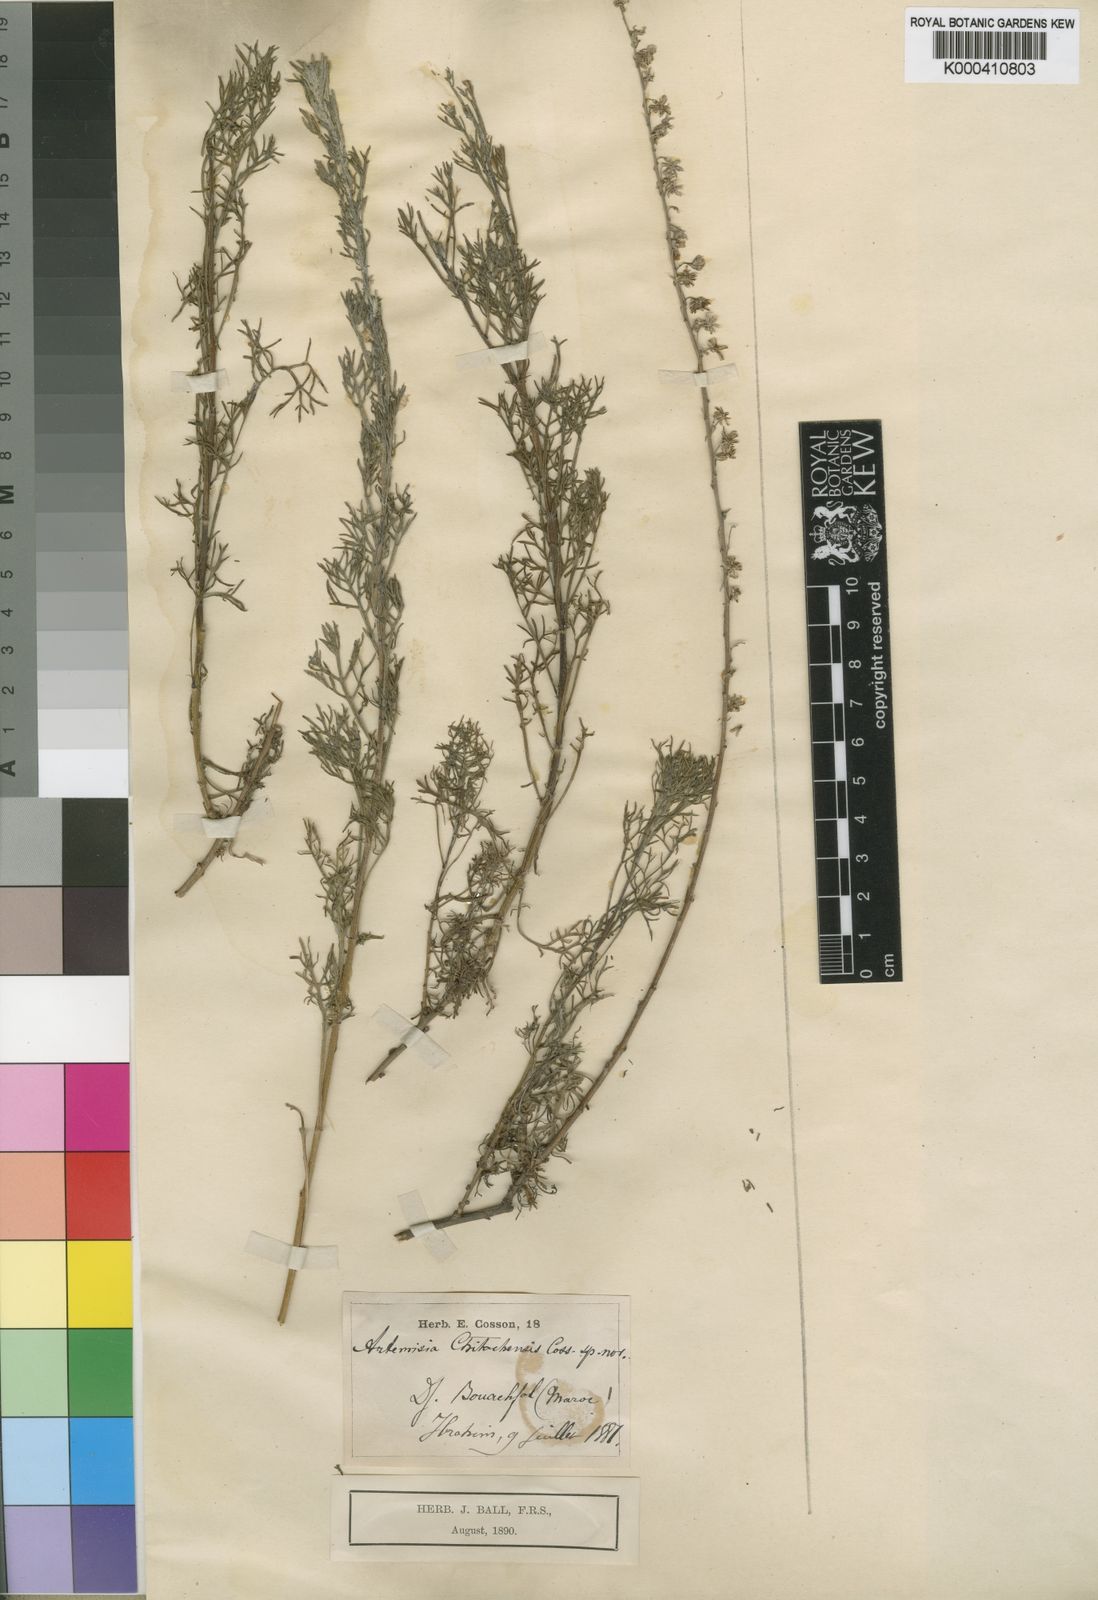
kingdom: Plantae
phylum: Tracheophyta
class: Magnoliopsida
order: Asterales
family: Asteraceae
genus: Artemisia
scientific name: Artemisia alba
